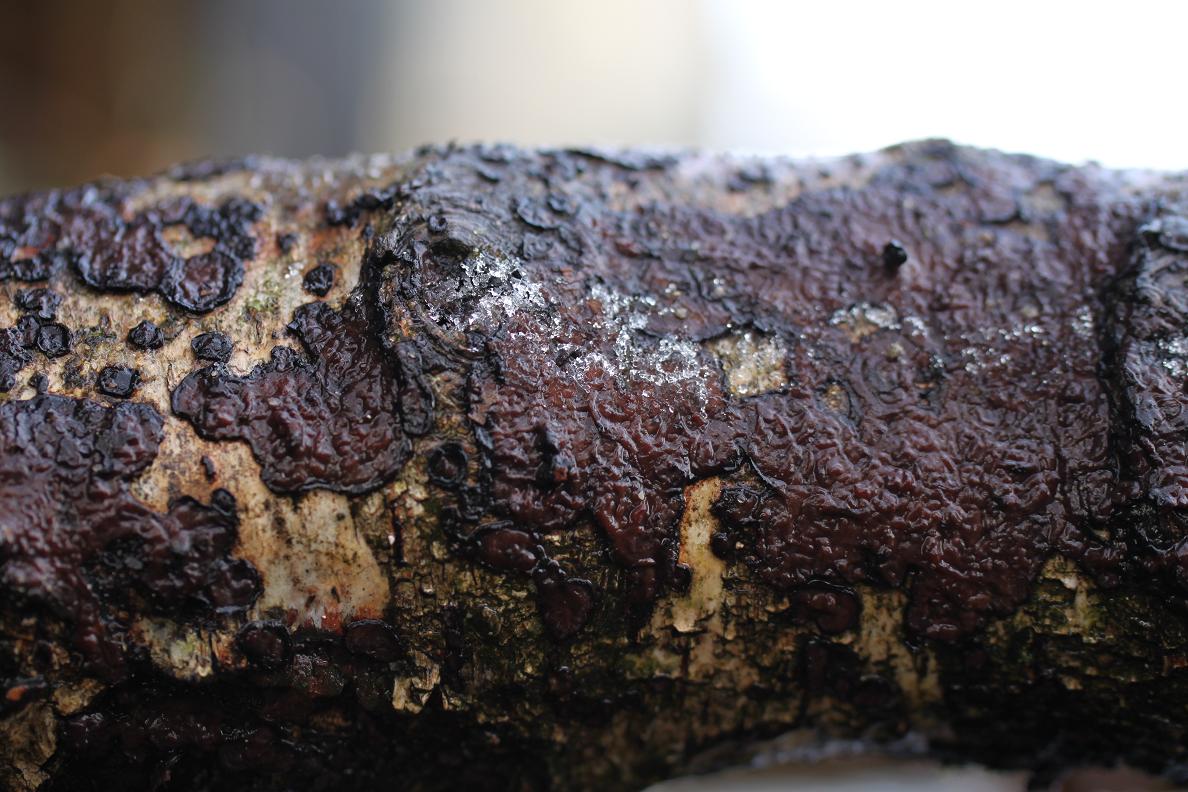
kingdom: Fungi
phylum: Basidiomycota
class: Agaricomycetes
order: Russulales
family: Peniophoraceae
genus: Peniophora
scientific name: Peniophora limitata
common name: mørkrandet voksskind
